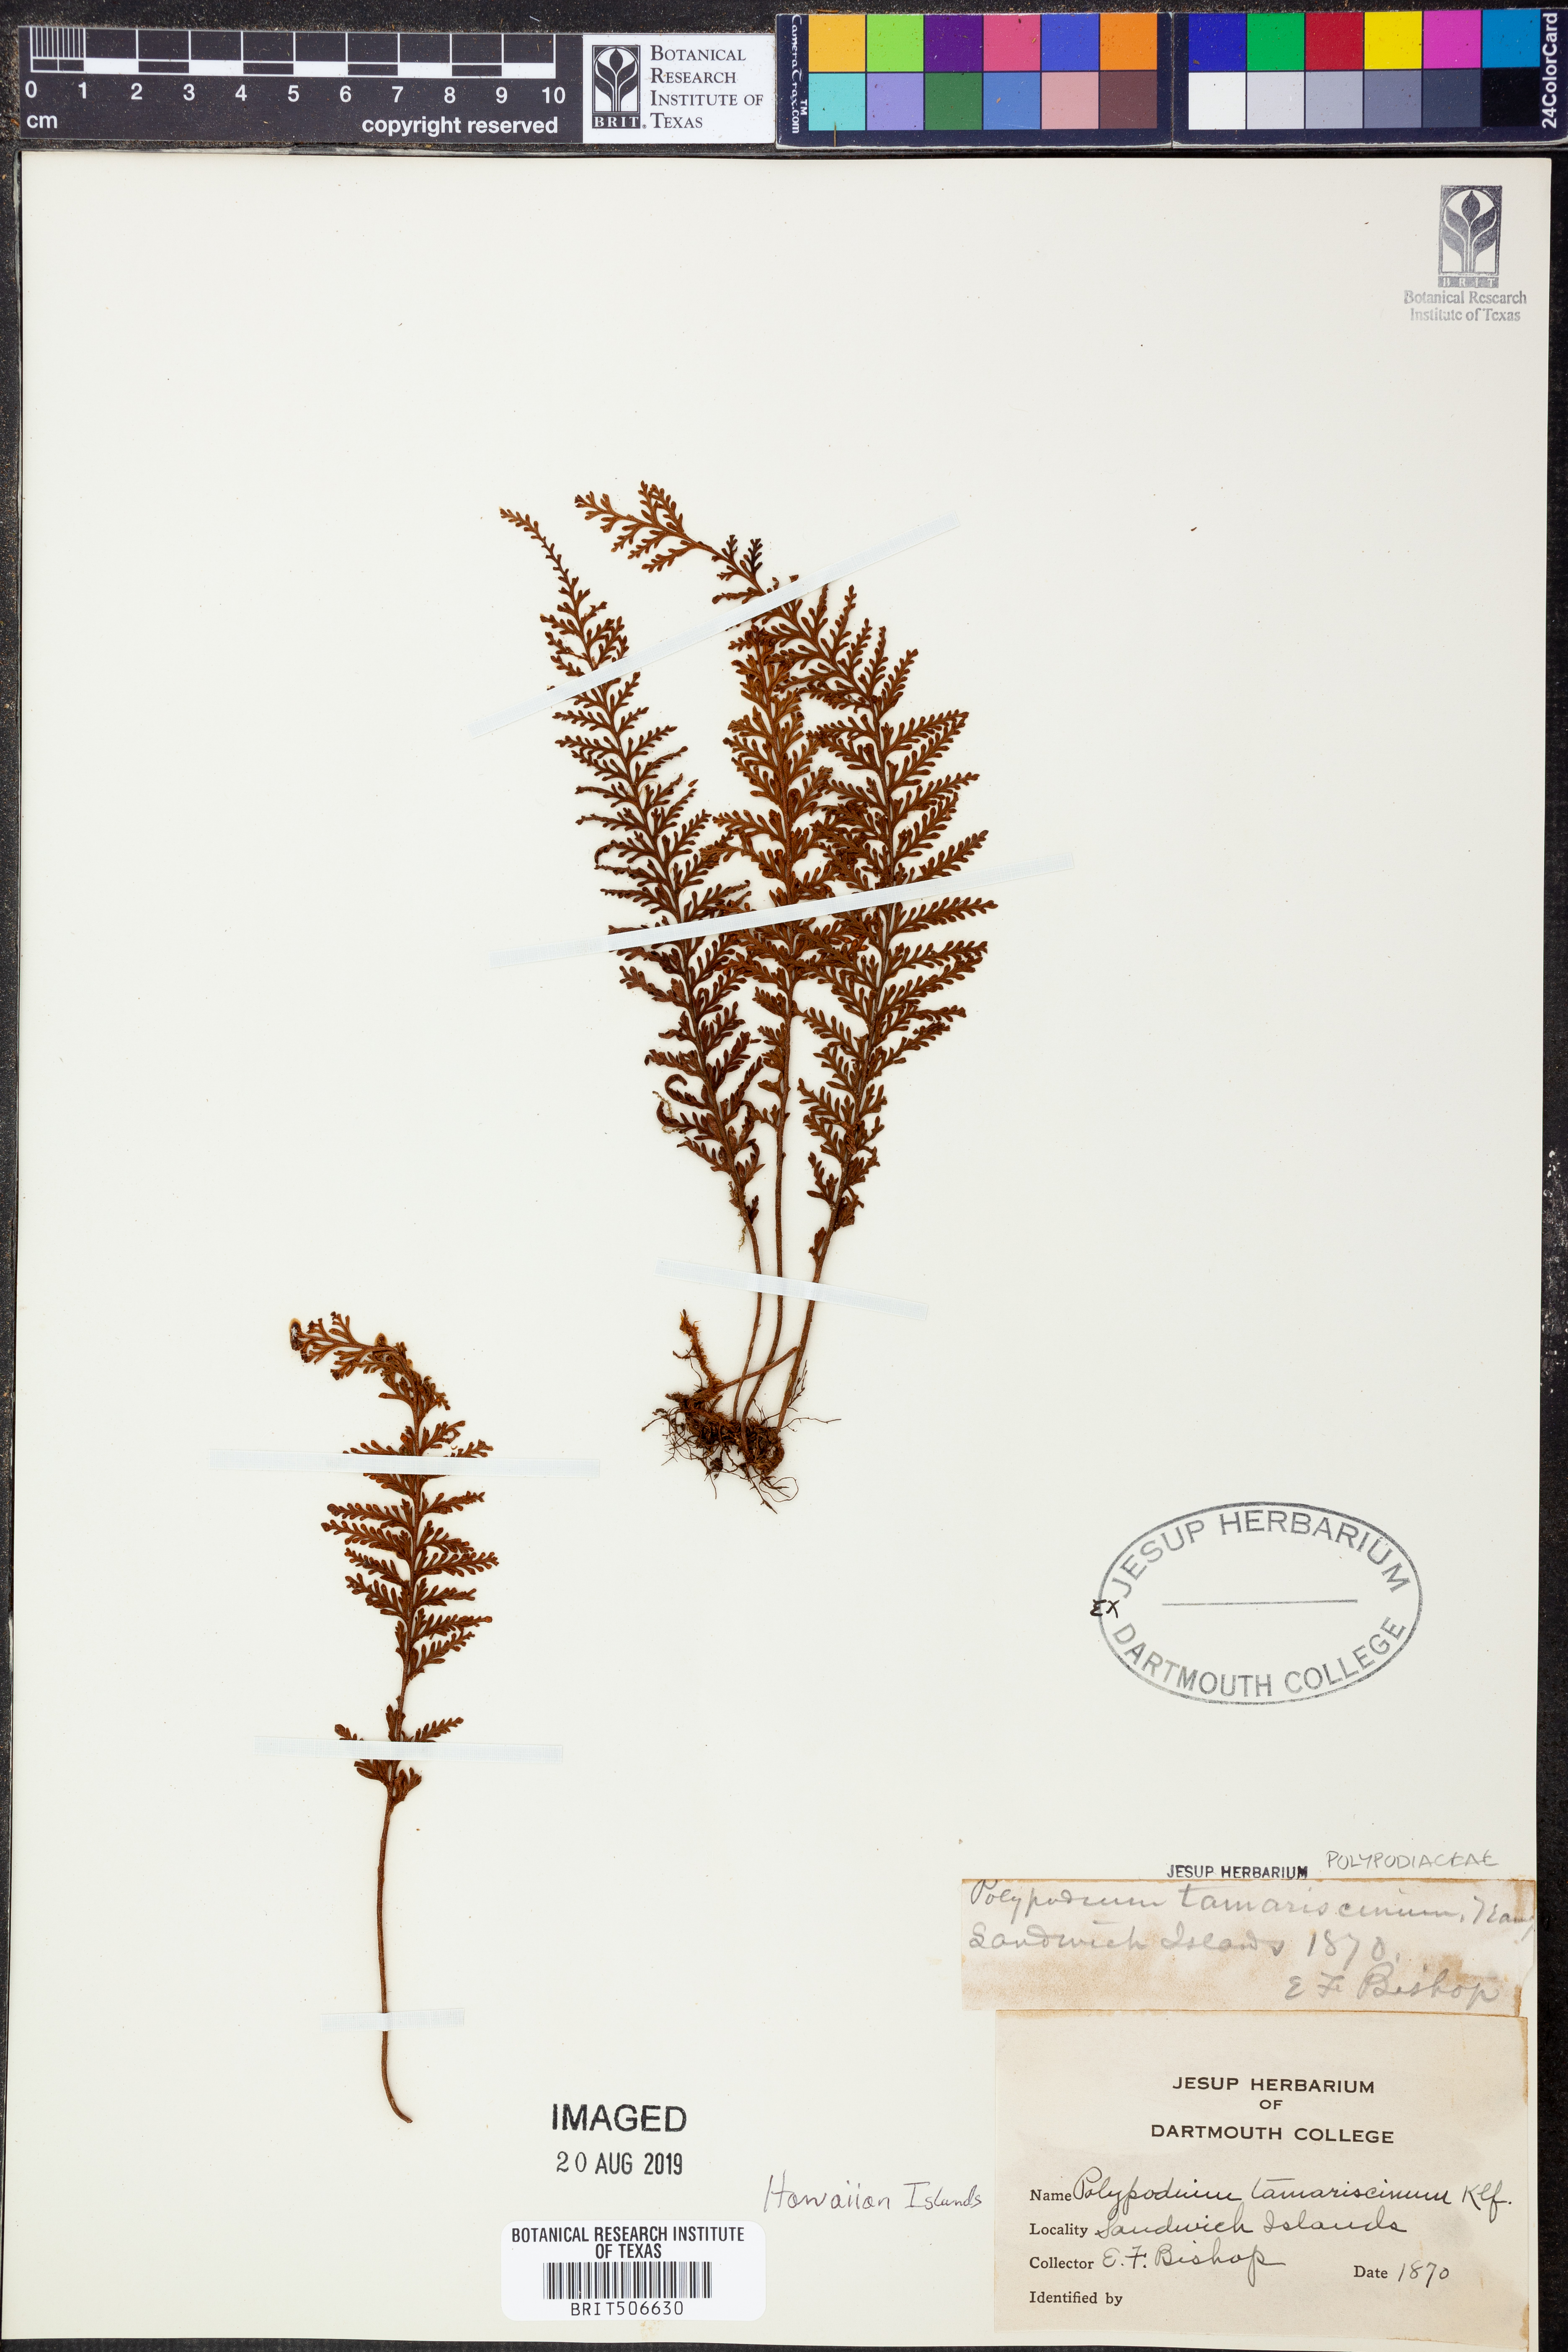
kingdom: Plantae
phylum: Tracheophyta
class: Polypodiopsida
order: Polypodiales
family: Polypodiaceae
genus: Adenophorus
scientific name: Adenophorus tamariscinus
